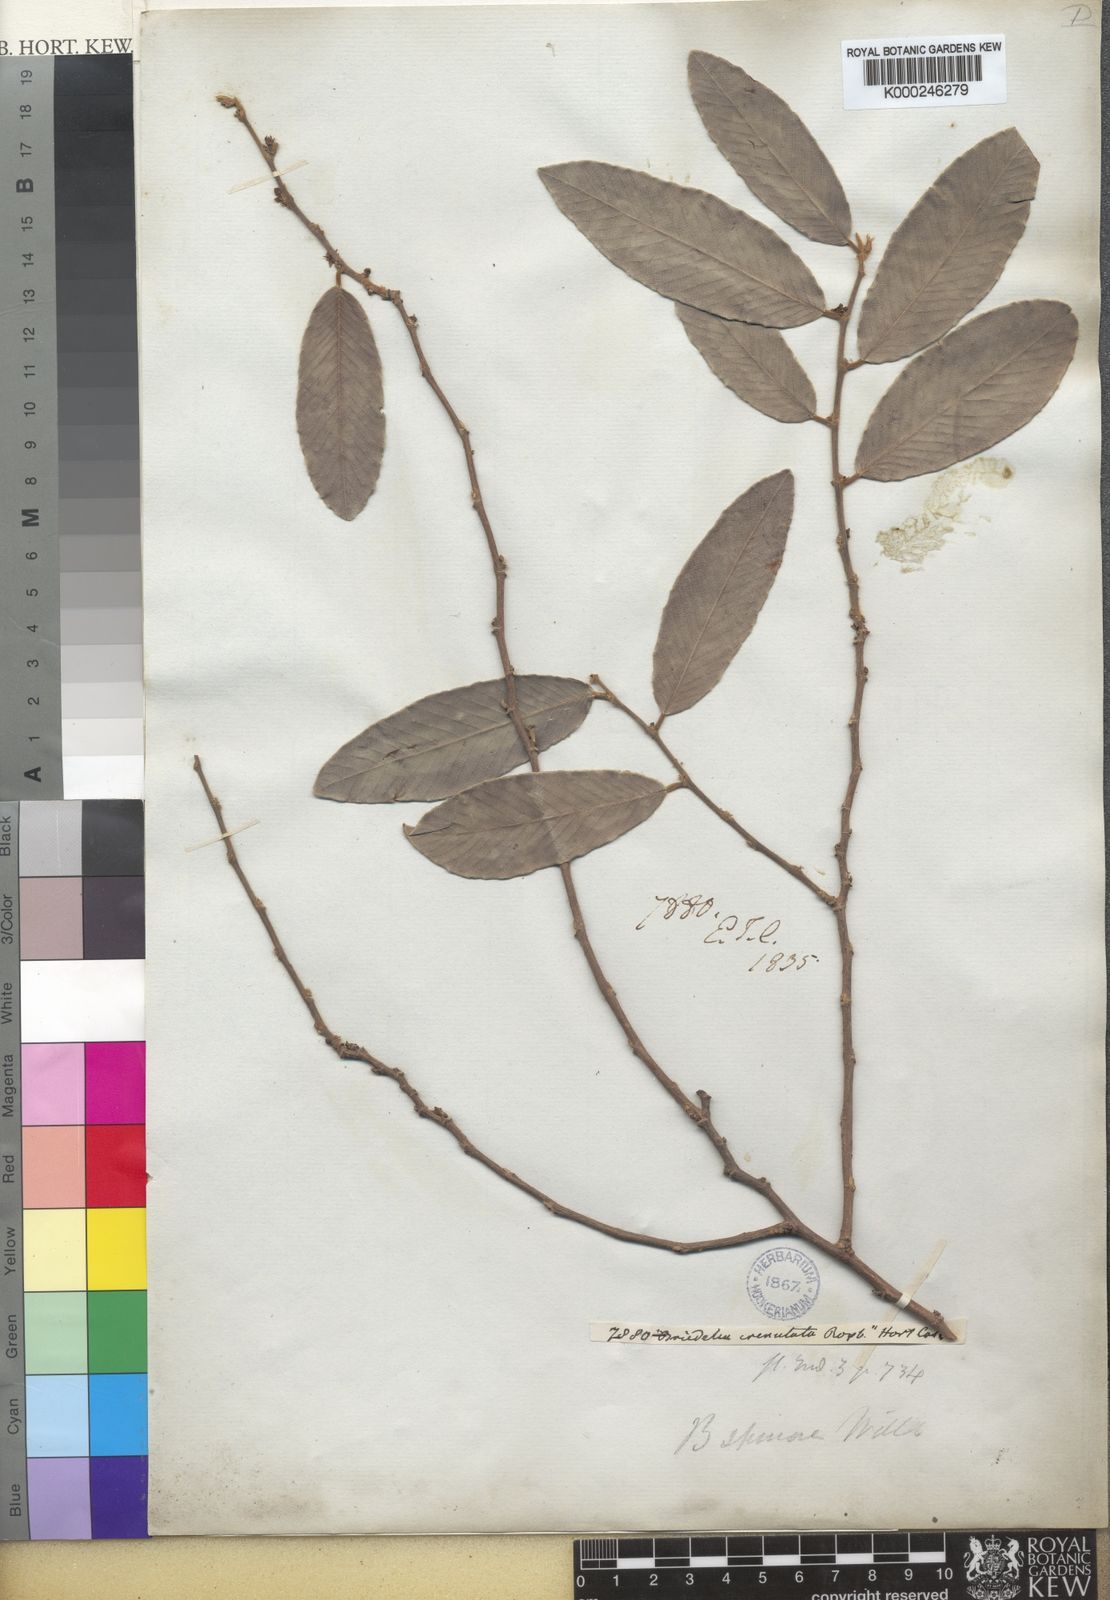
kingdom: Plantae
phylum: Tracheophyta
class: Magnoliopsida
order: Malpighiales
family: Phyllanthaceae
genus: Bridelia
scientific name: Bridelia retusa
